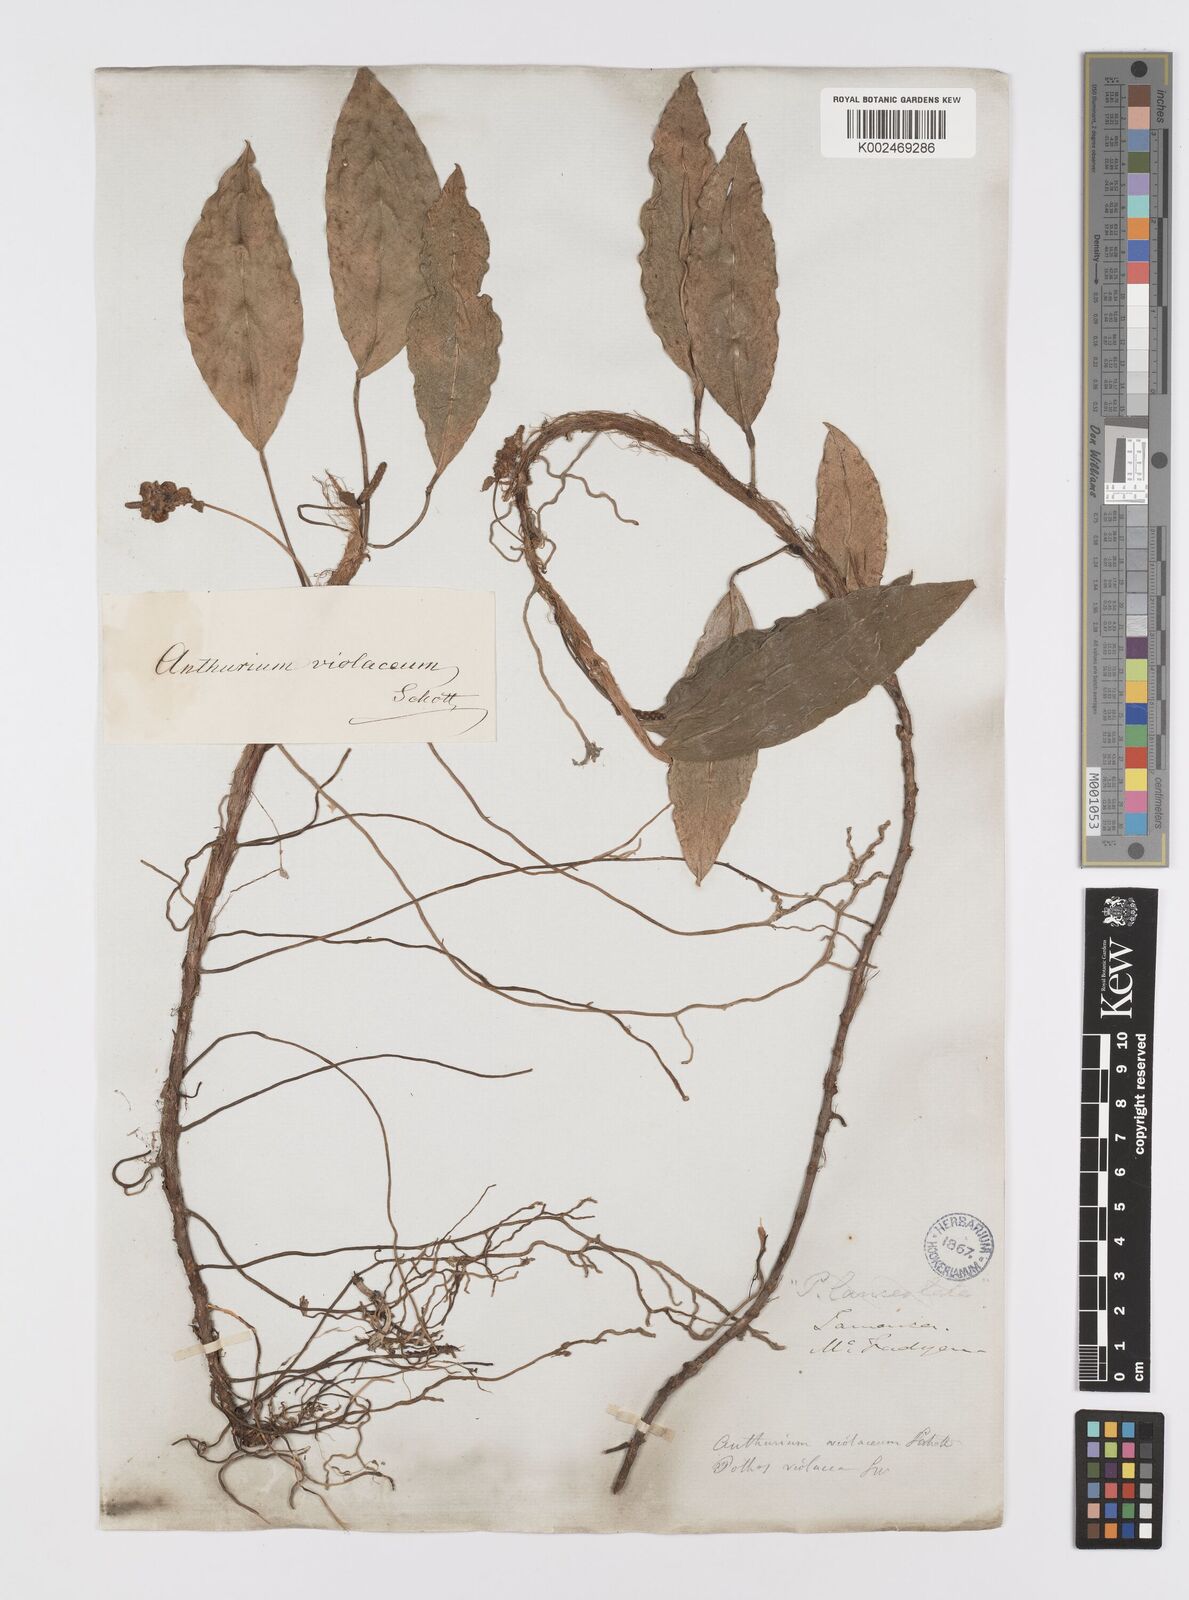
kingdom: Plantae
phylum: Tracheophyta
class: Liliopsida
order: Alismatales
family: Araceae
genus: Anthurium
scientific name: Anthurium scandens
